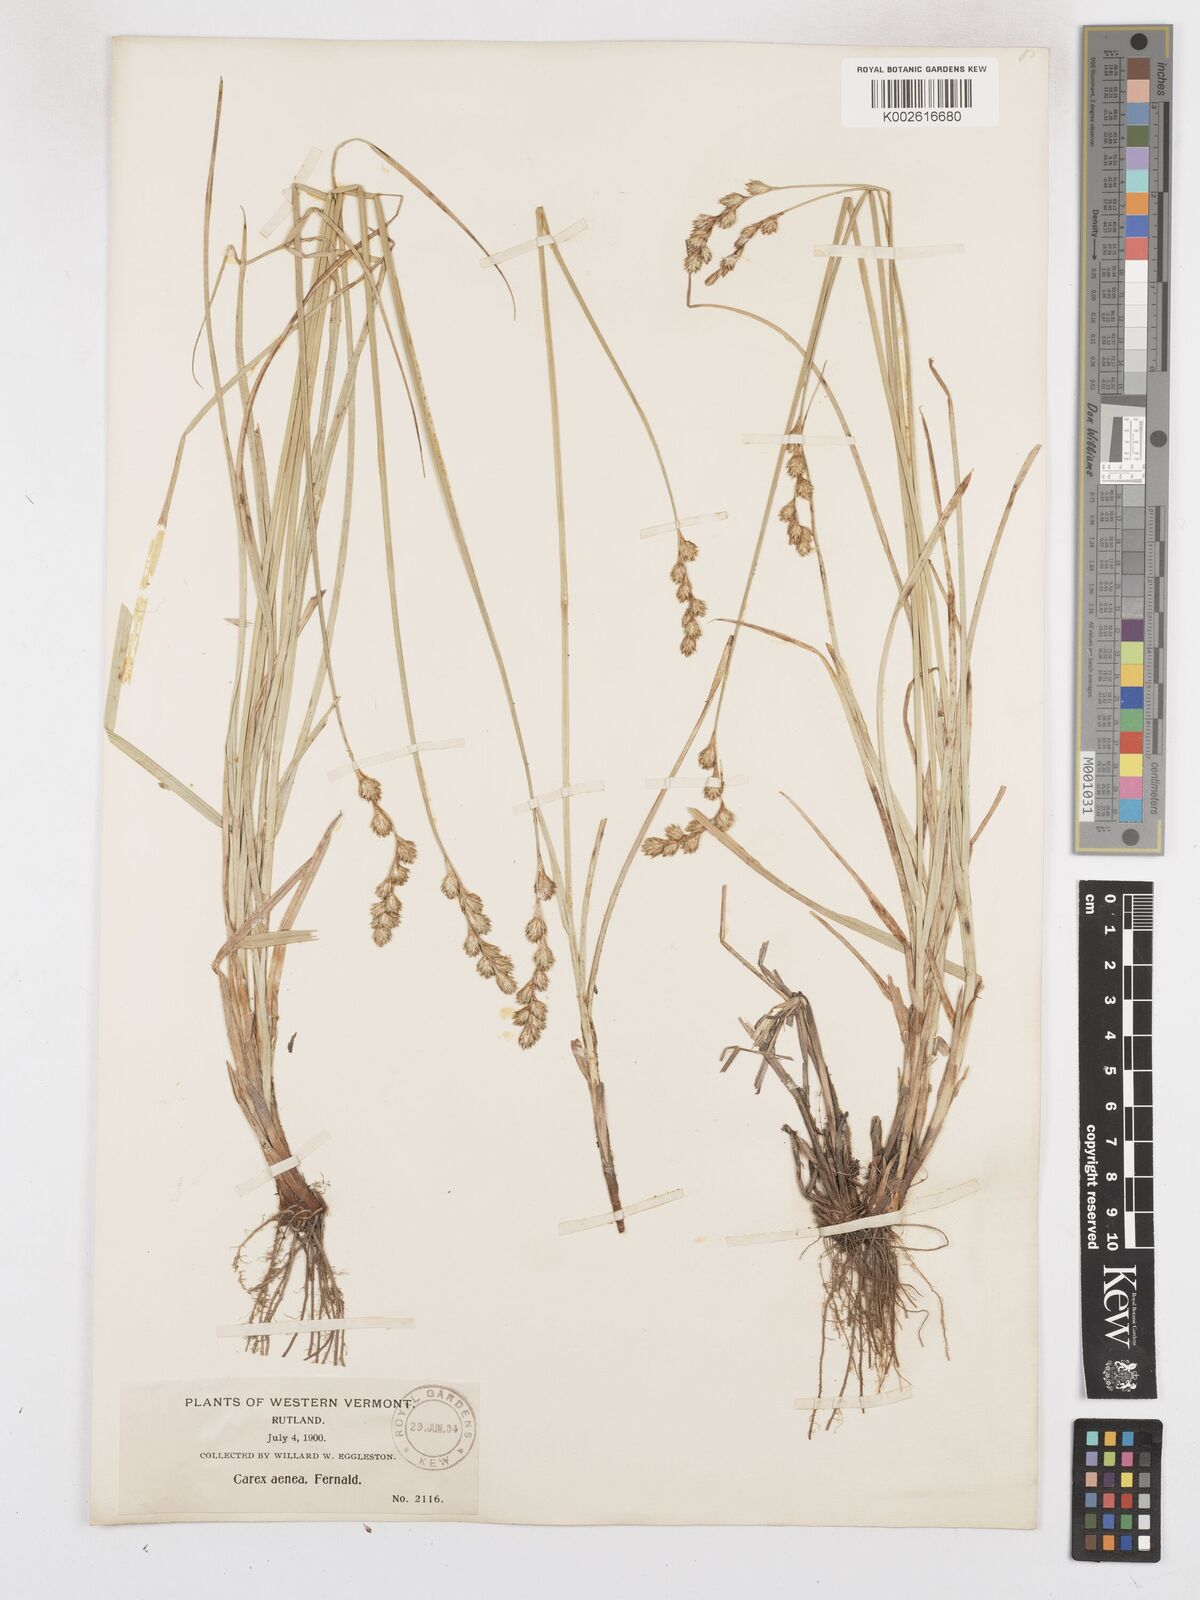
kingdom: Plantae
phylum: Tracheophyta
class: Liliopsida
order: Poales
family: Cyperaceae
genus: Carex
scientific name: Carex foenea
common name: Bronze sedge
